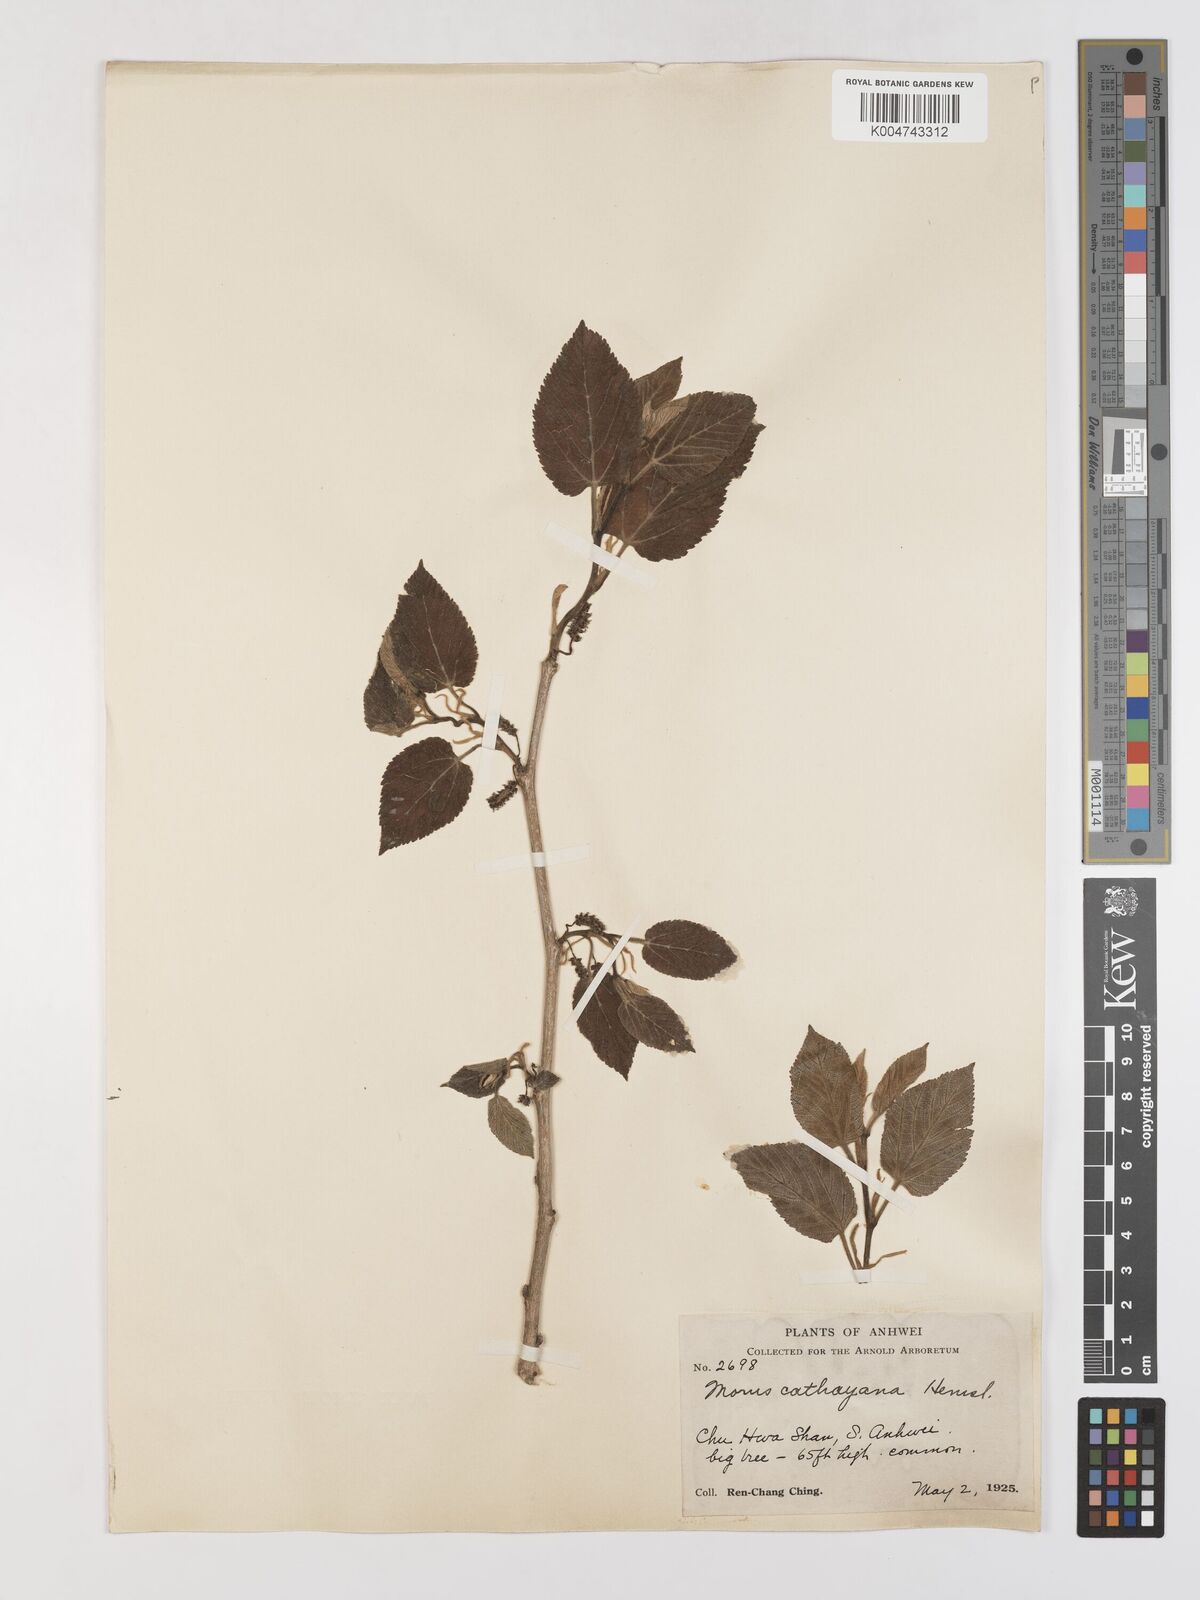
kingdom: Plantae
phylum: Tracheophyta
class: Magnoliopsida
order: Rosales
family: Moraceae
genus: Morus
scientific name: Morus cathayana
